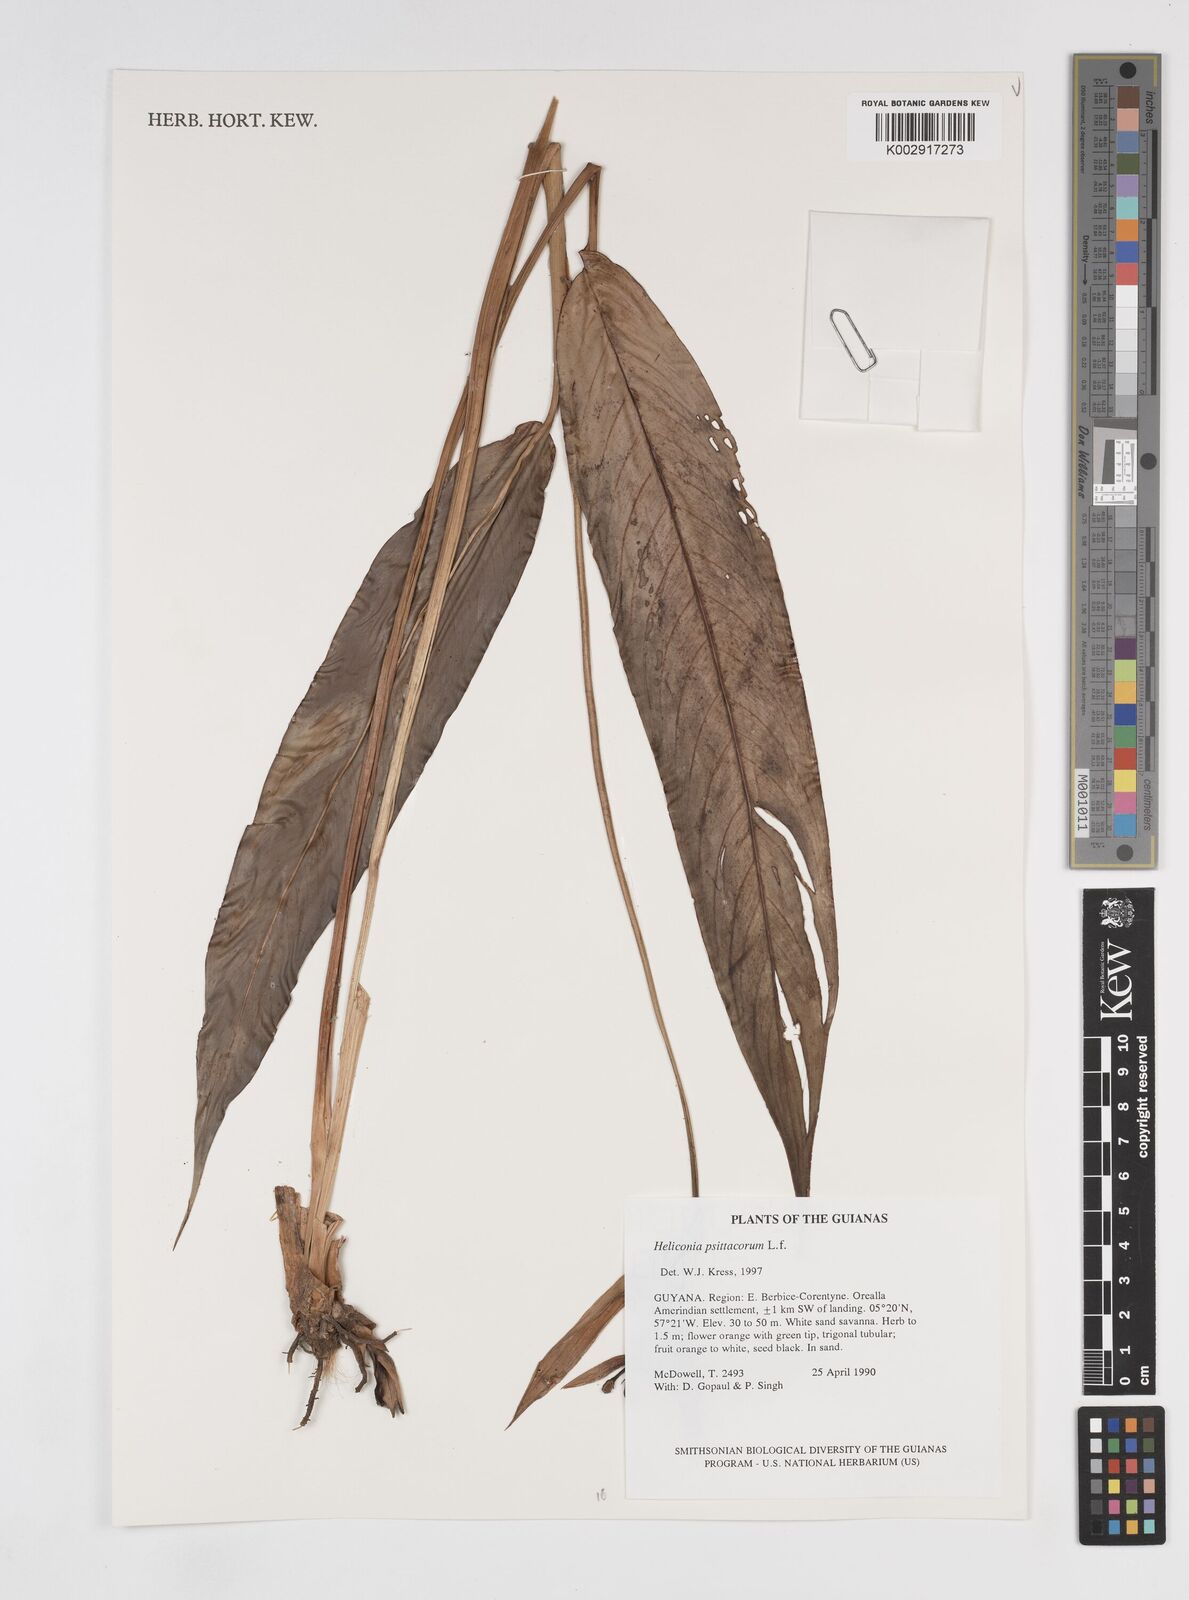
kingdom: Plantae
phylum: Tracheophyta
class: Liliopsida
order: Zingiberales
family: Heliconiaceae
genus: Heliconia
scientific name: Heliconia psittacorum
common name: Parrot's-flower
